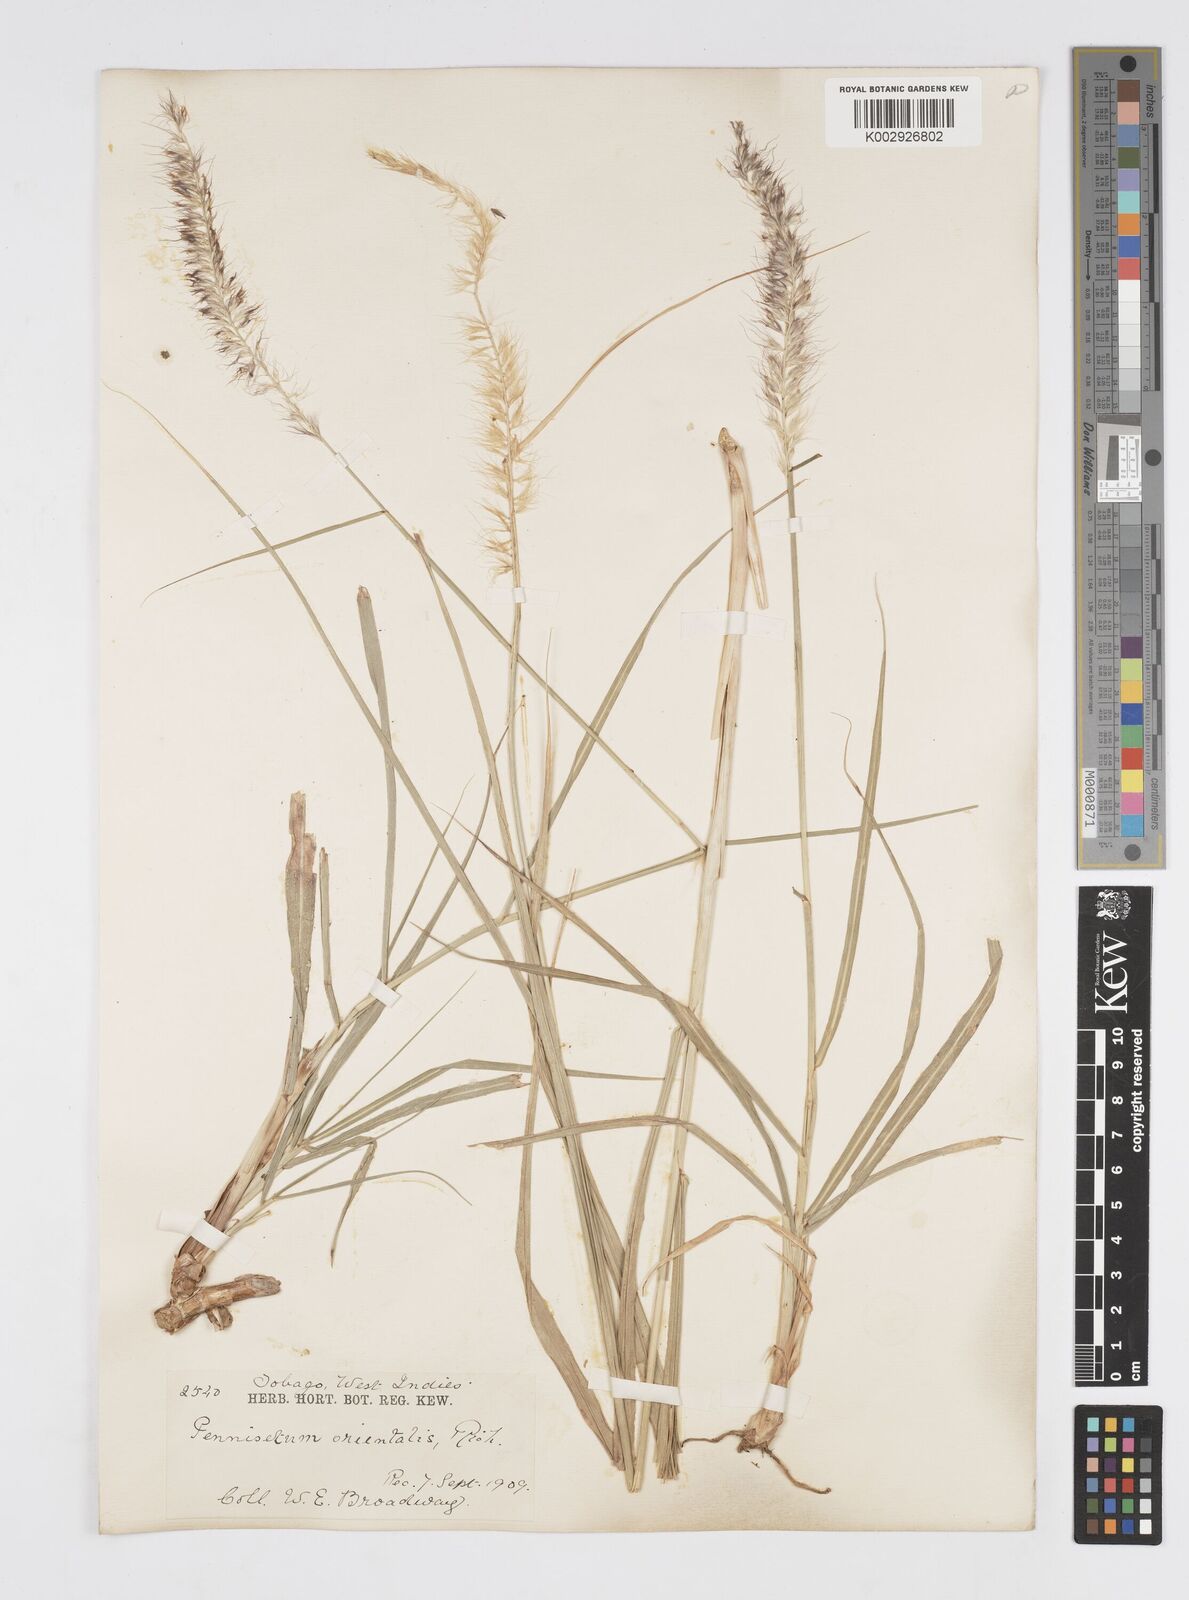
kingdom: Plantae
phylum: Tracheophyta
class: Liliopsida
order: Poales
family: Poaceae
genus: Cenchrus
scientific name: Cenchrus orientalis
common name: Oriental fountain grass
